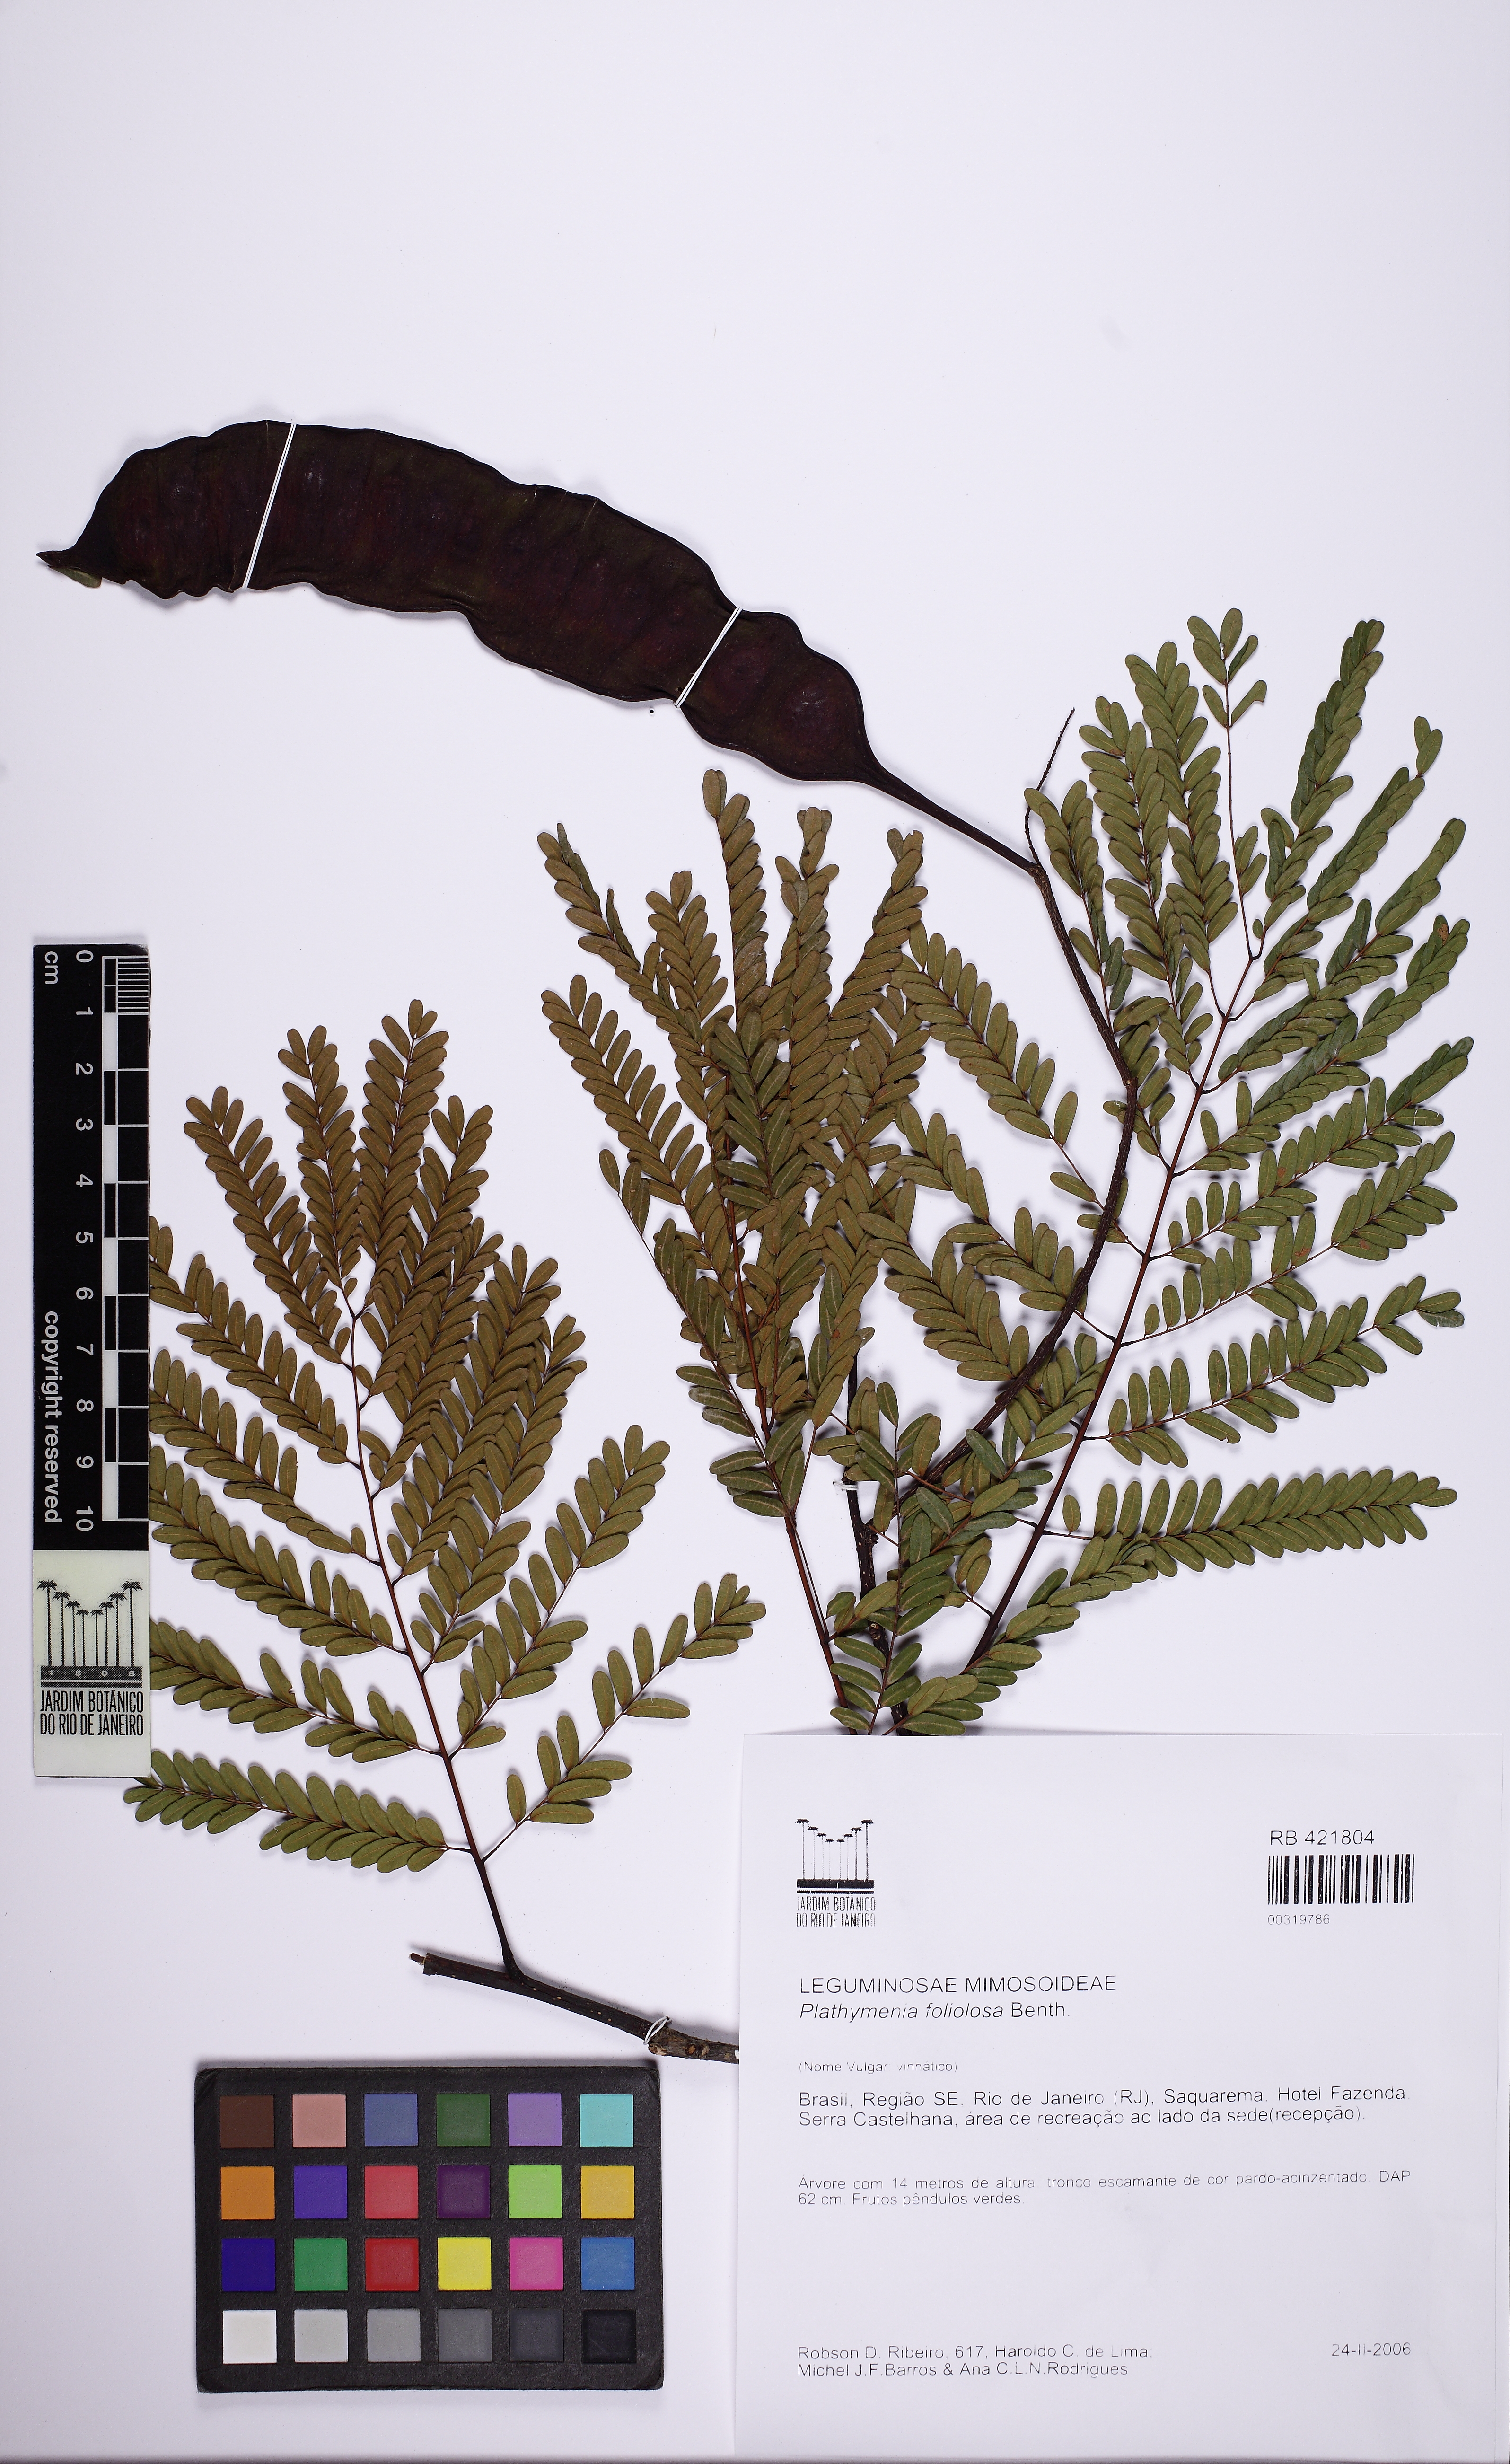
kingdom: Plantae
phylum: Tracheophyta
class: Magnoliopsida
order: Fabales
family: Fabaceae
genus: Plathymenia
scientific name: Plathymenia reticulata
